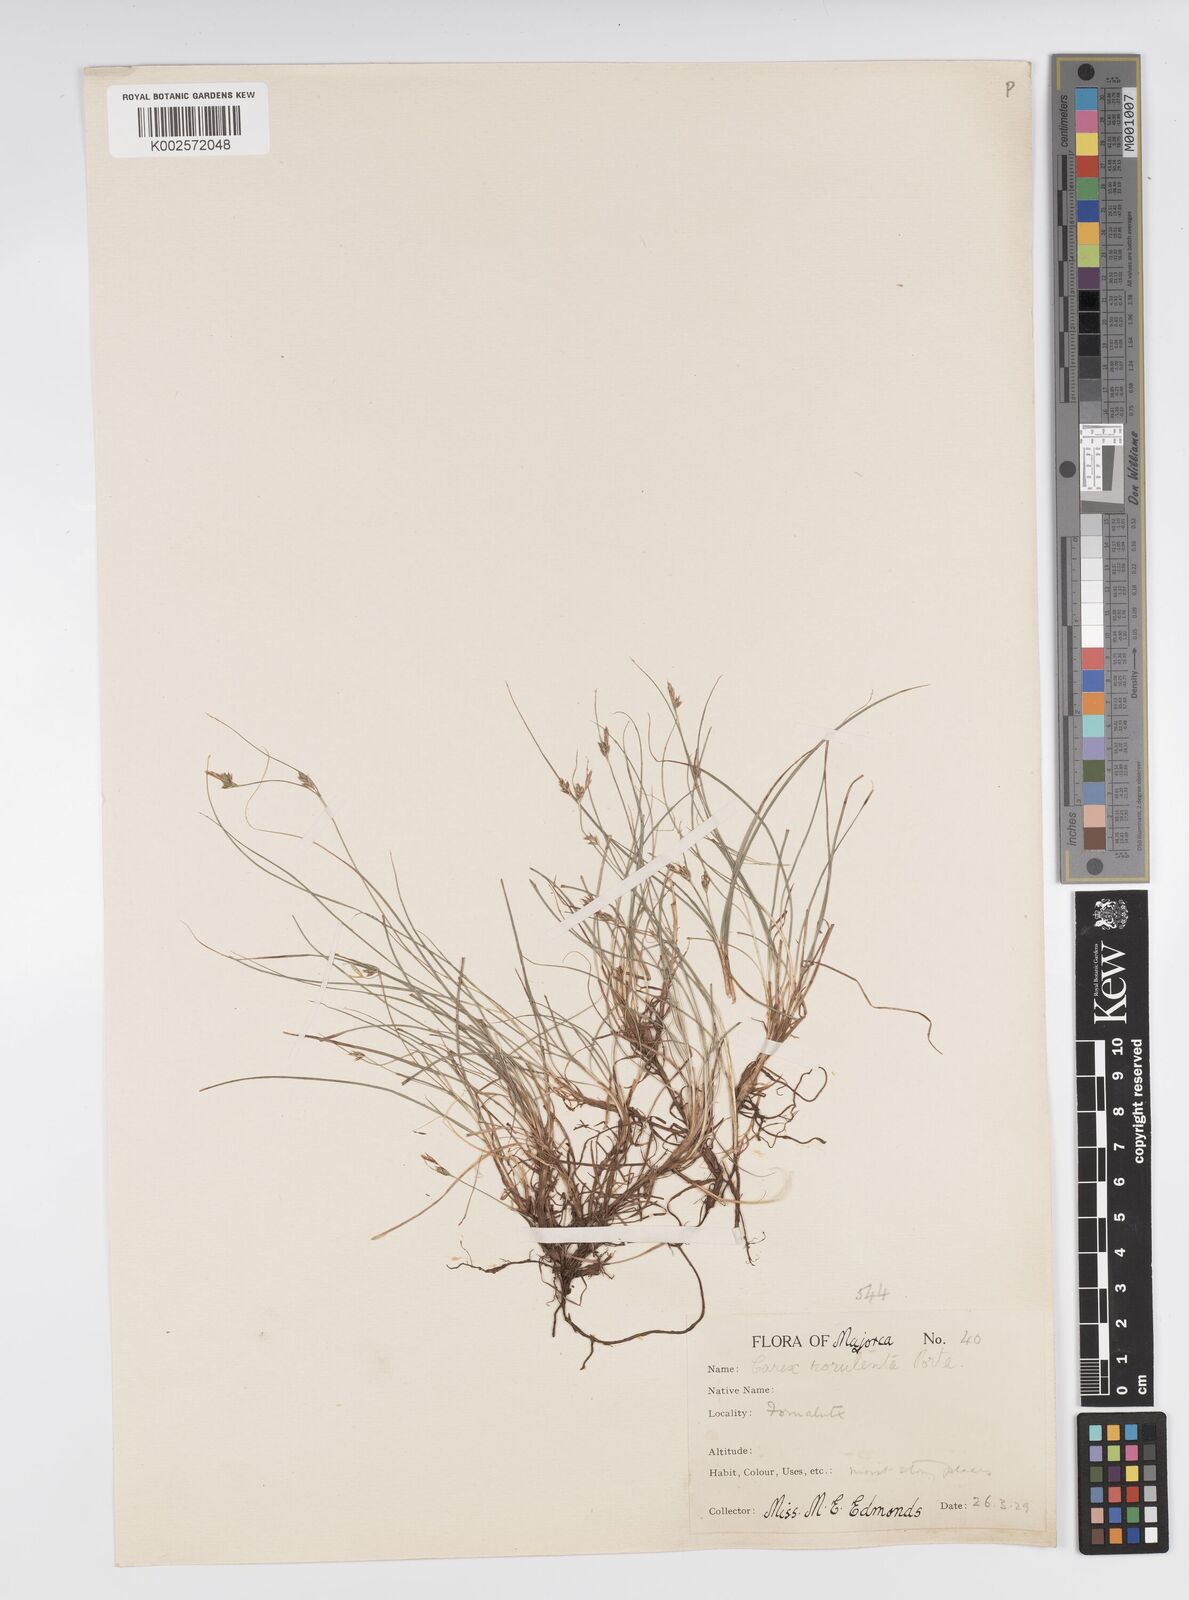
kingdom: Plantae
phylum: Tracheophyta
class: Liliopsida
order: Poales
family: Cyperaceae
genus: Carex
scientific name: Carex rorulenta
